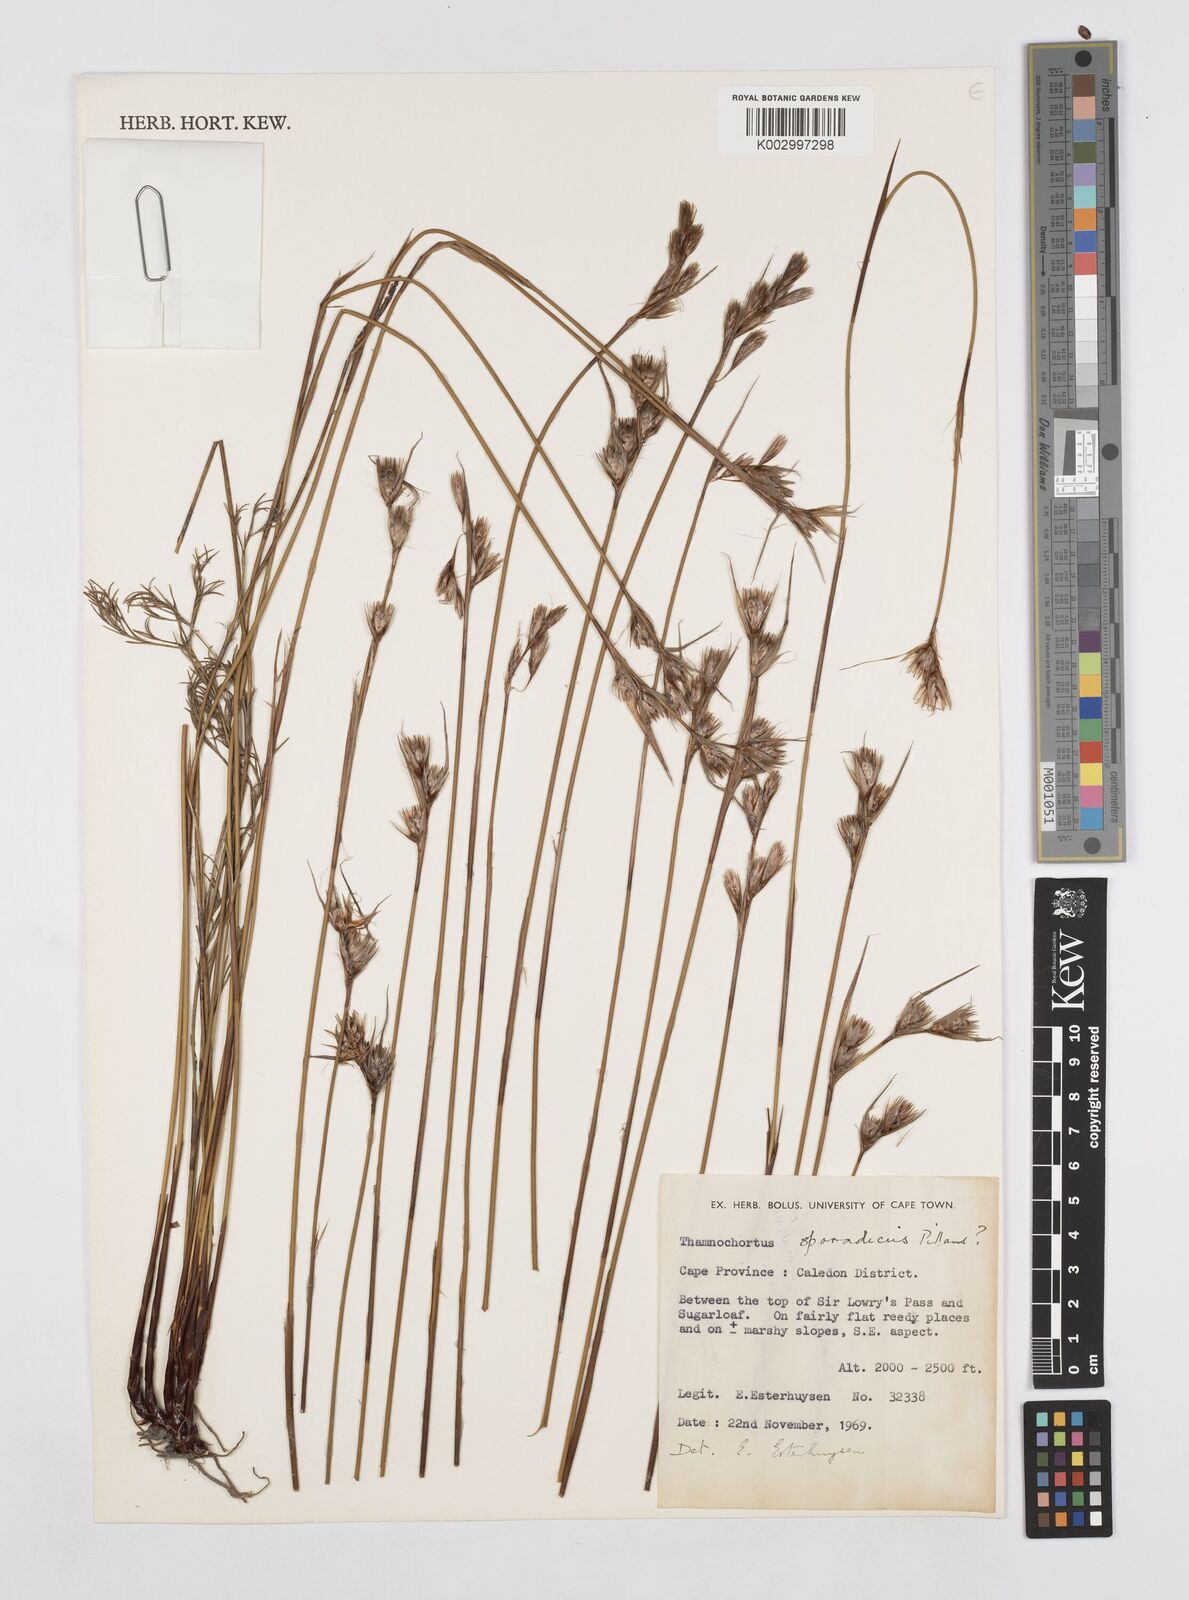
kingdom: Plantae
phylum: Tracheophyta
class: Liliopsida
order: Poales
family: Restionaceae
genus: Thamnochortus
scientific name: Thamnochortus sporadicus
